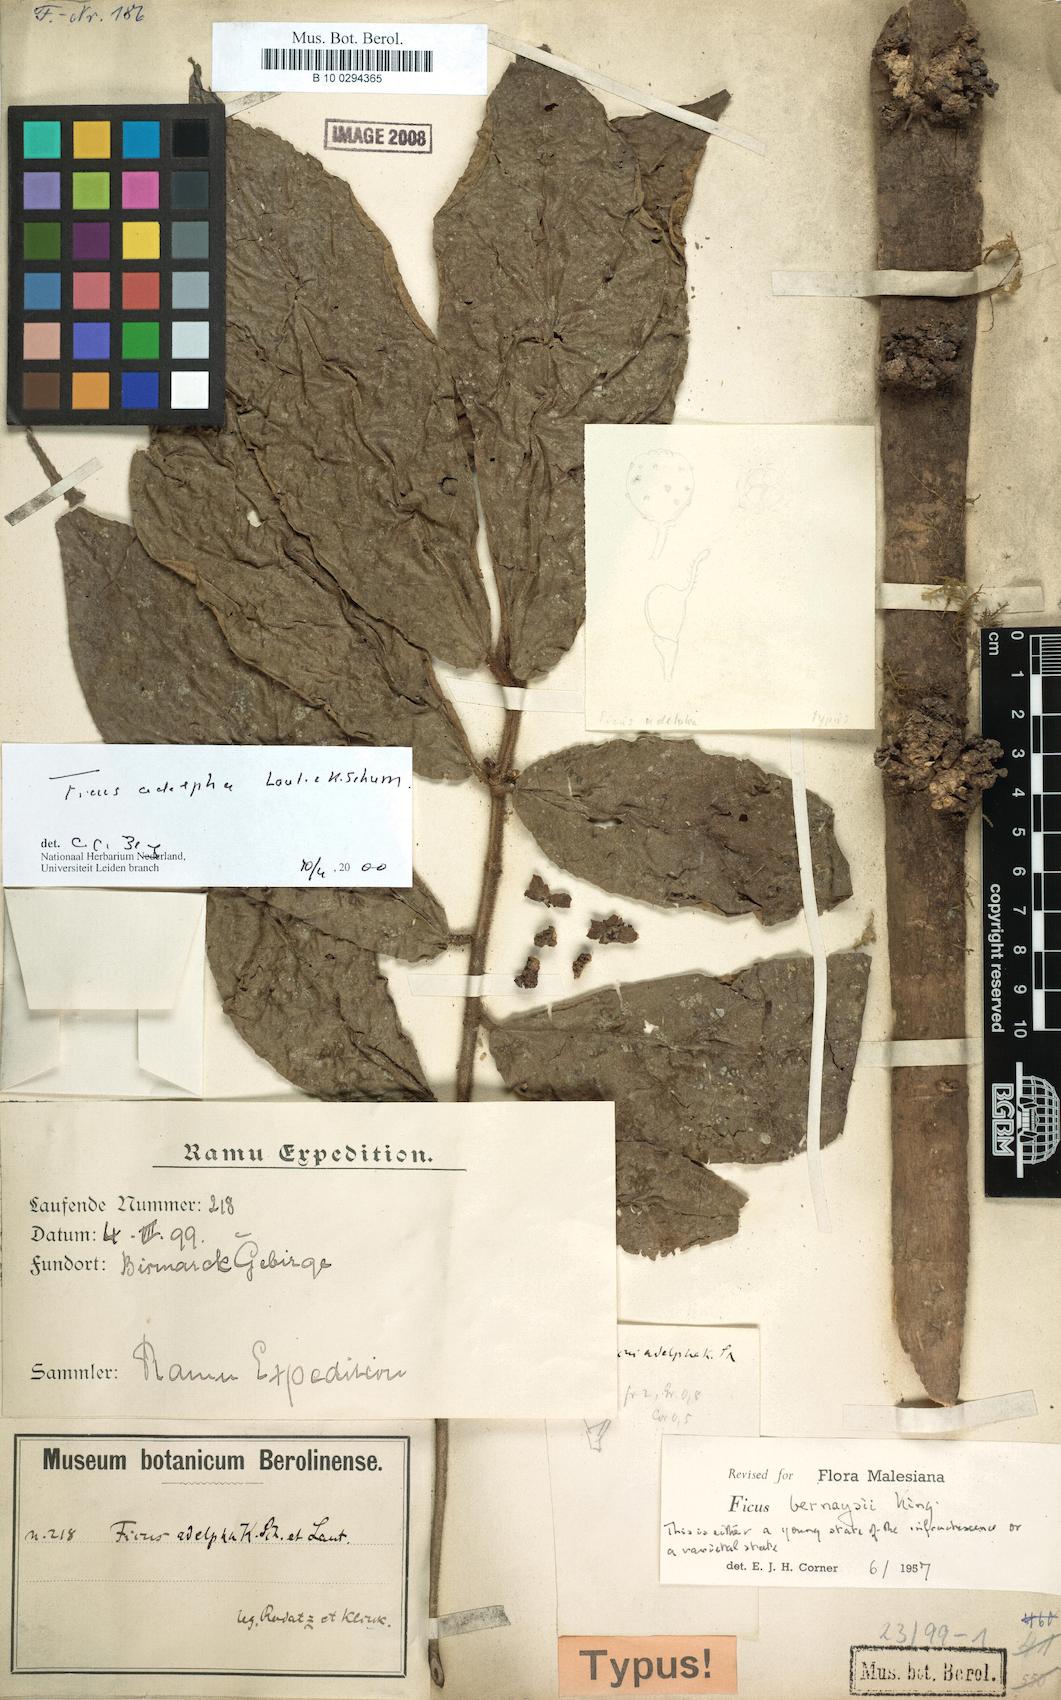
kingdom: Plantae
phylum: Tracheophyta
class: Magnoliopsida
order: Rosales
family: Moraceae
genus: Ficus
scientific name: Ficus adelpha
